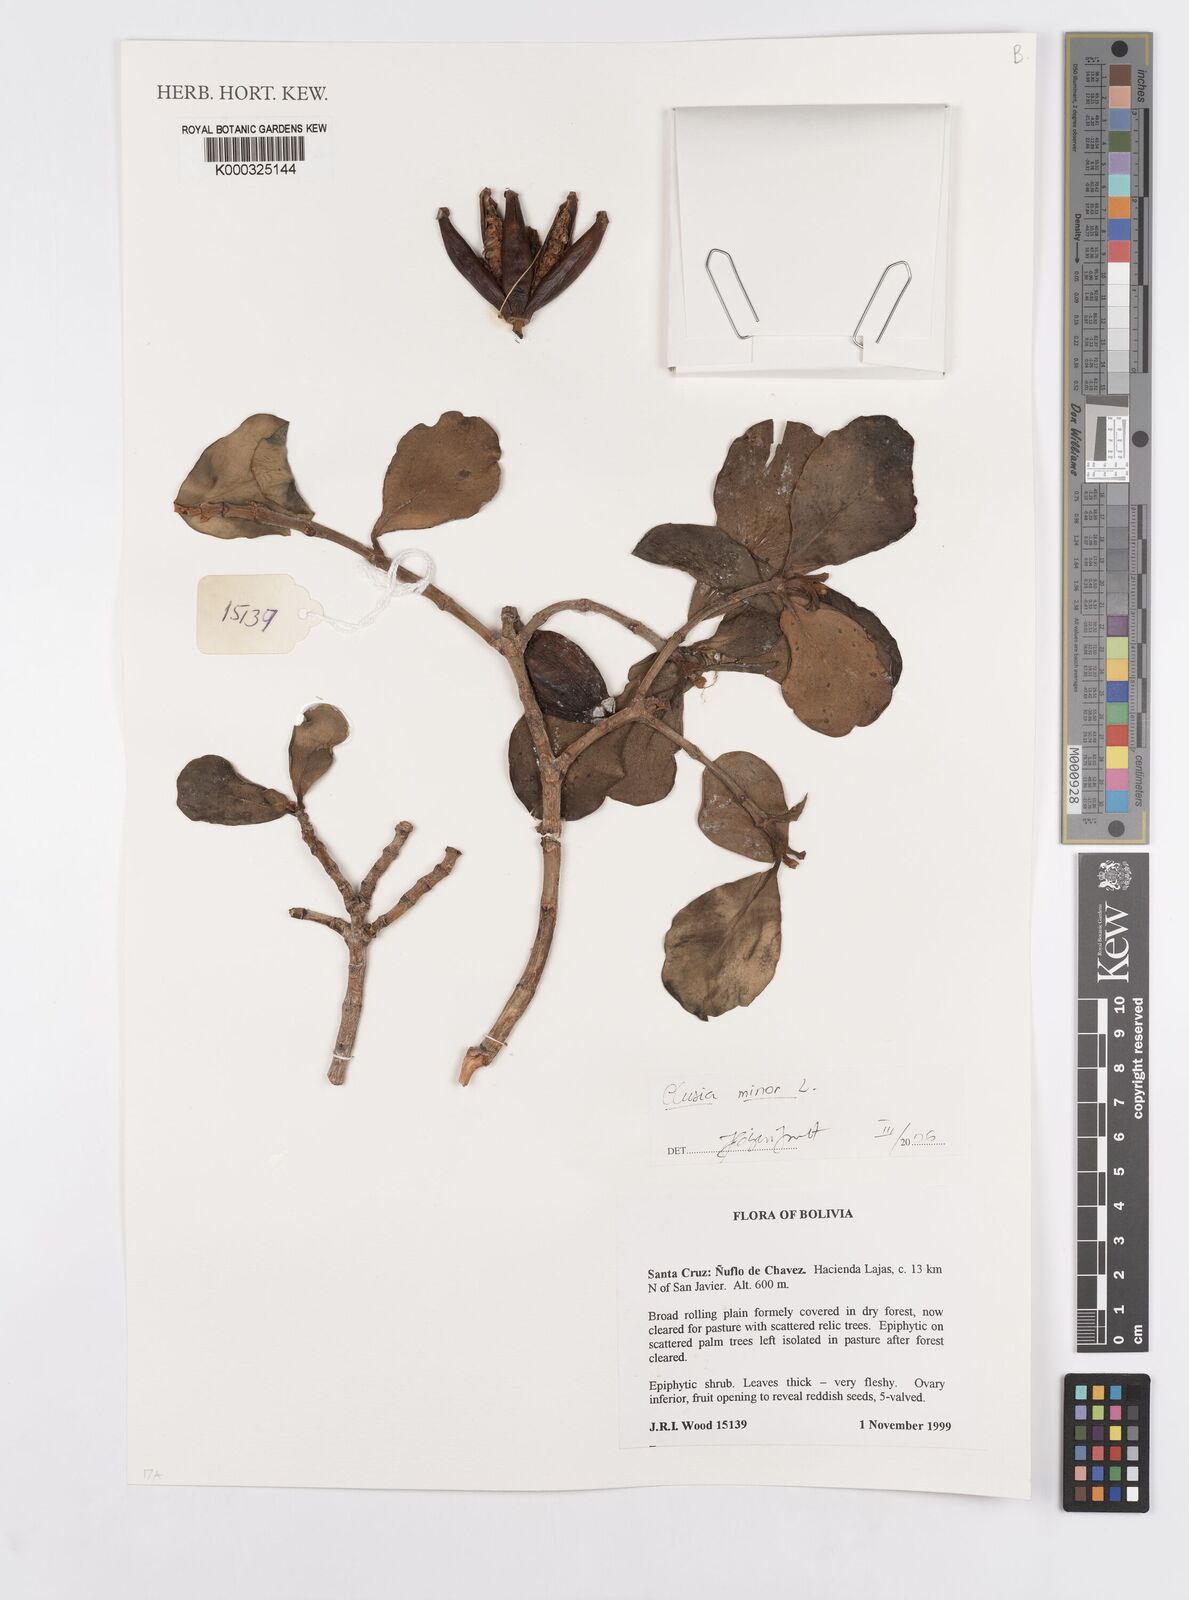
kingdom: Plantae
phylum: Tracheophyta
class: Magnoliopsida
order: Malpighiales
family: Clusiaceae
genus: Clusia
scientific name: Clusia minor
